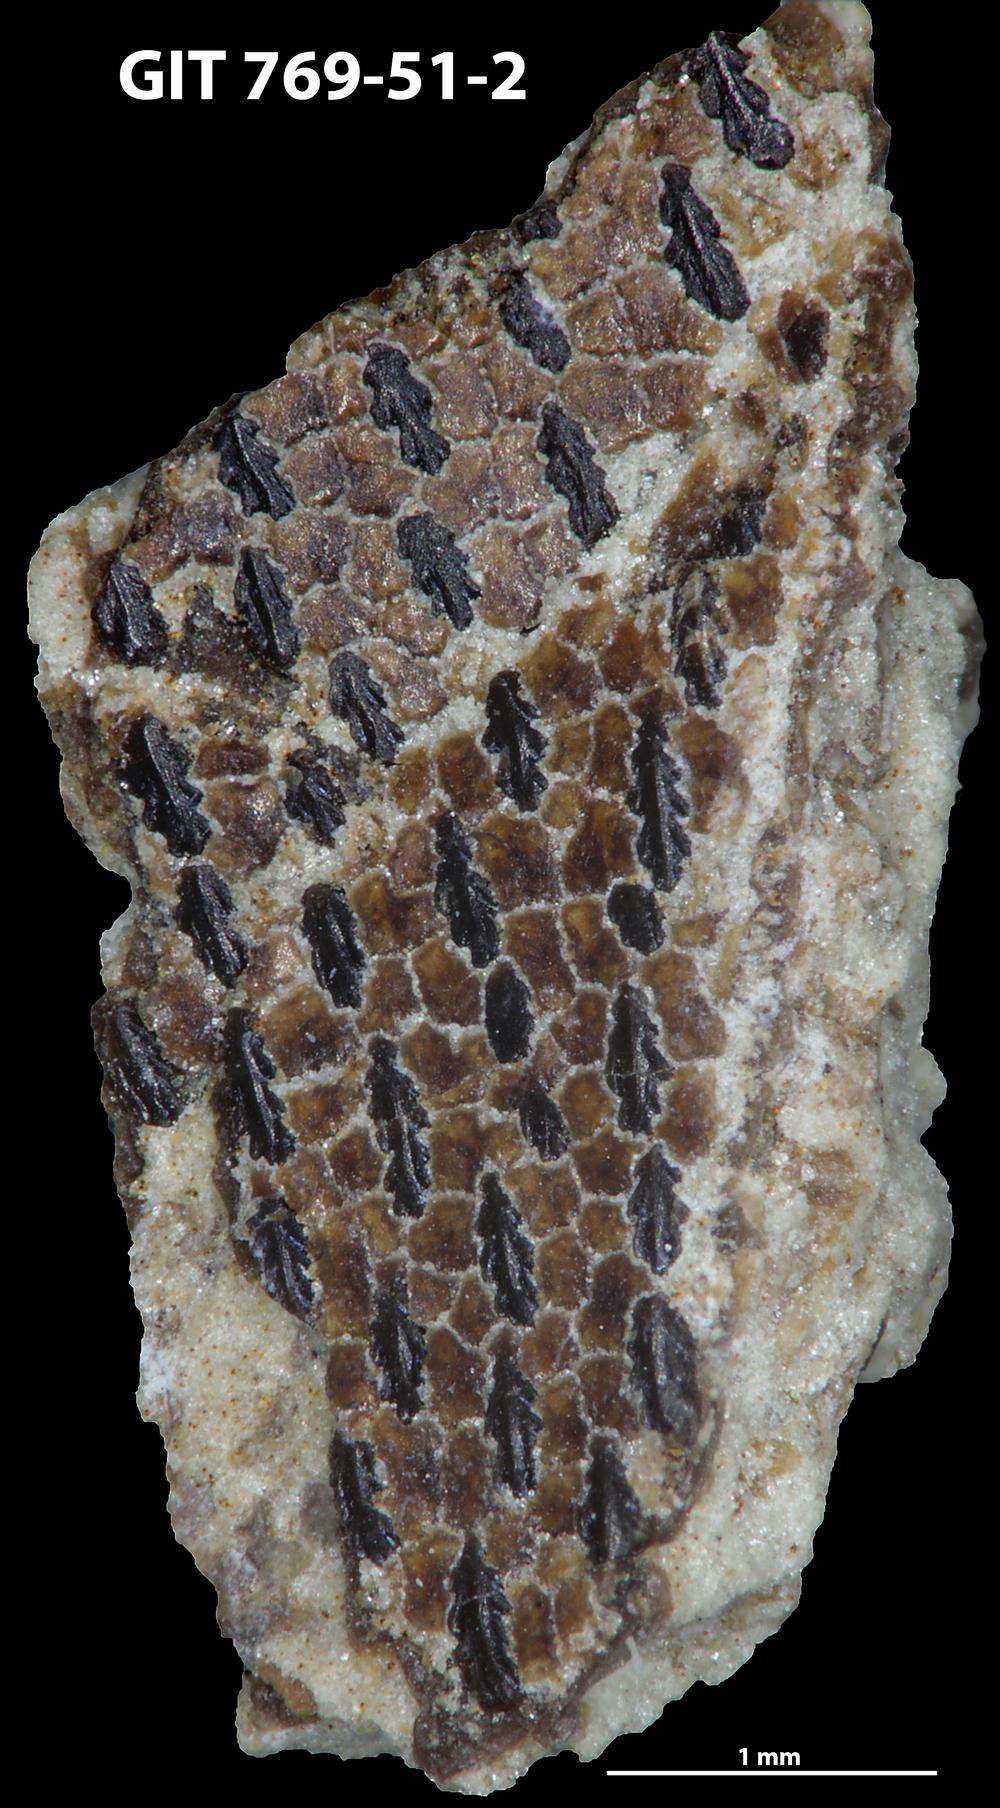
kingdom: Animalia
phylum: Chordata
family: Dartmuthiidae
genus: Dartmuthia
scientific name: Dartmuthia
